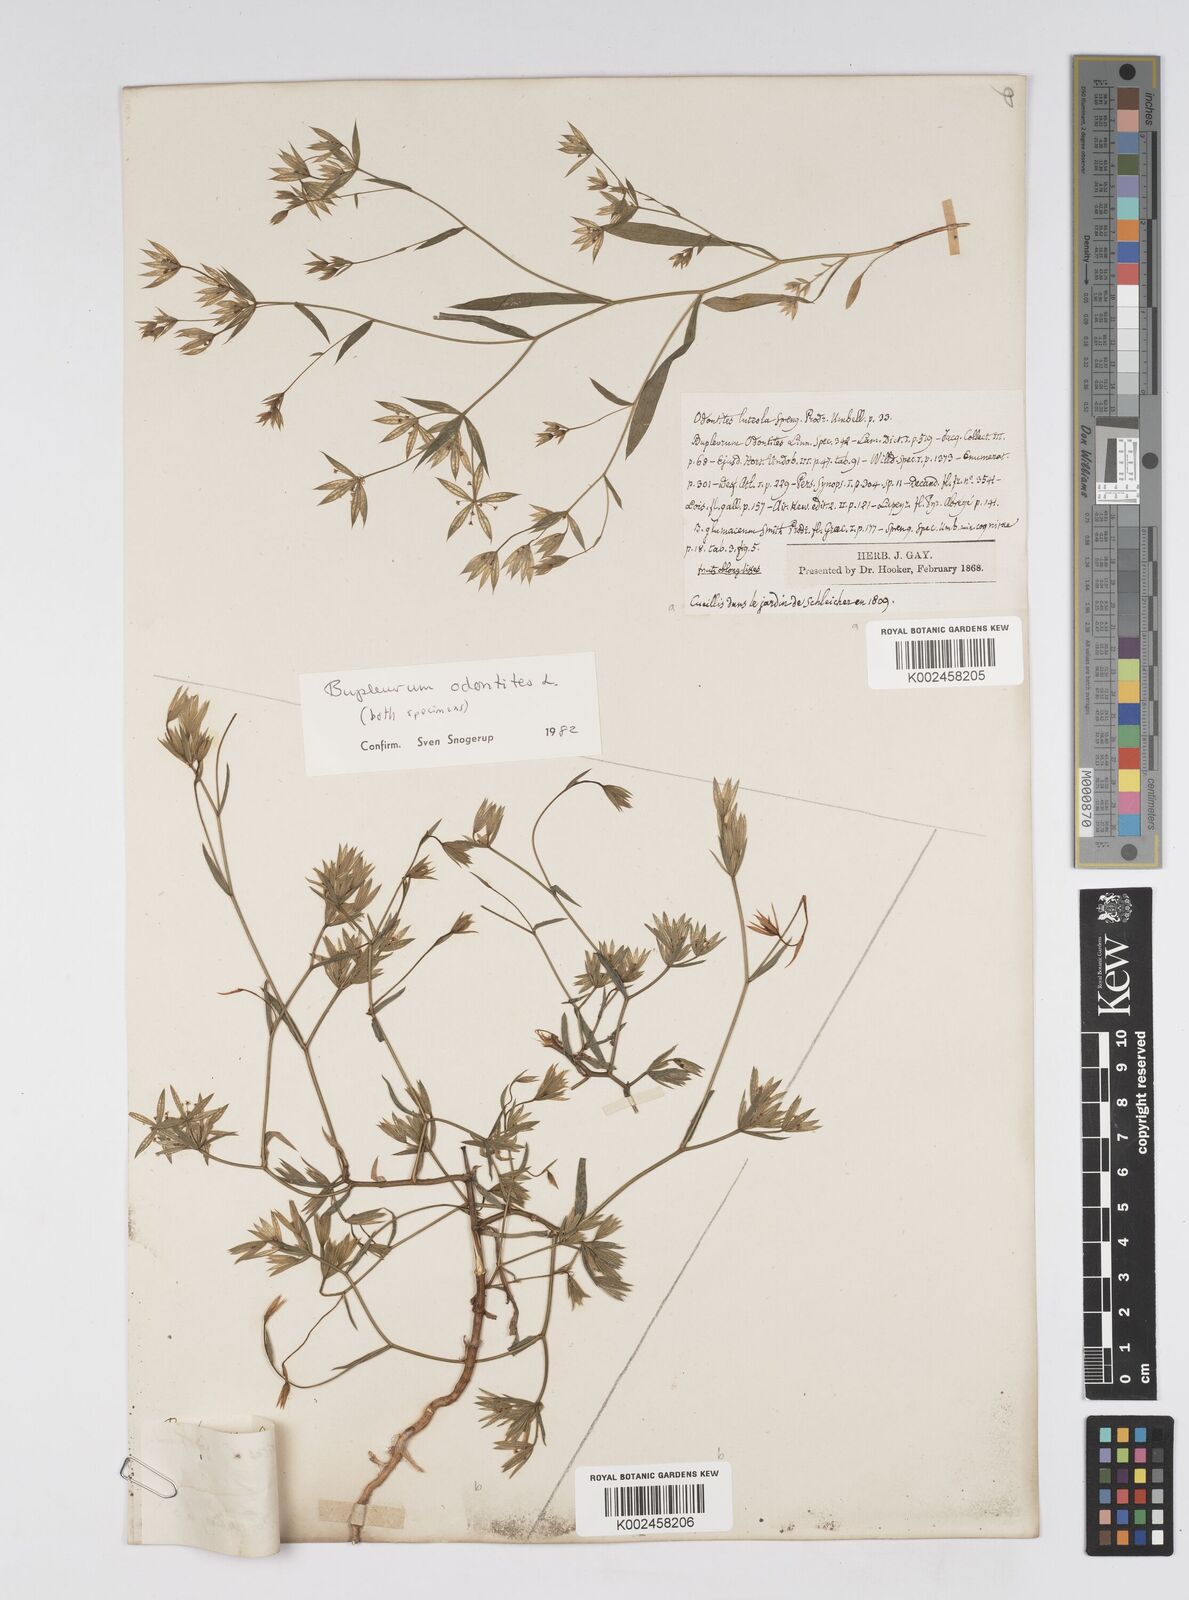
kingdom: Plantae
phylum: Tracheophyta
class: Magnoliopsida
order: Apiales
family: Apiaceae
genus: Bupleurum
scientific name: Bupleurum odontites
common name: Narrowleaf thorow wax
